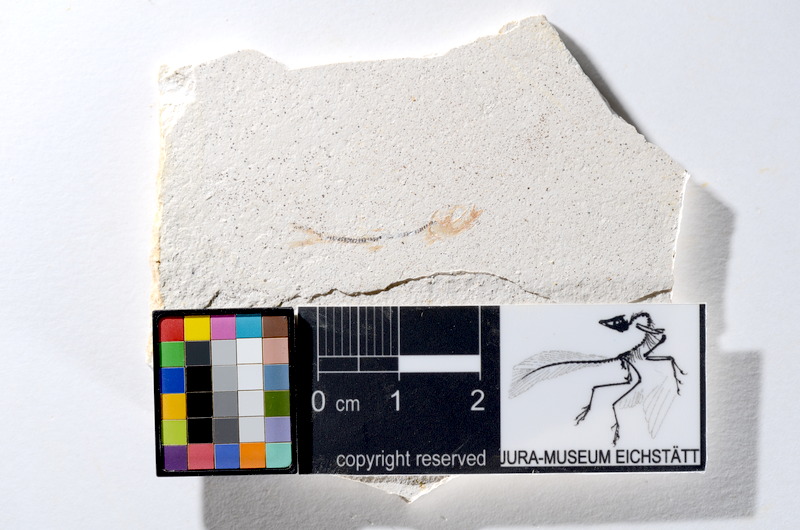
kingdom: Animalia
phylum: Chordata
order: Salmoniformes
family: Orthogonikleithridae
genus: Orthogonikleithrus
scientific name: Orthogonikleithrus hoelli
